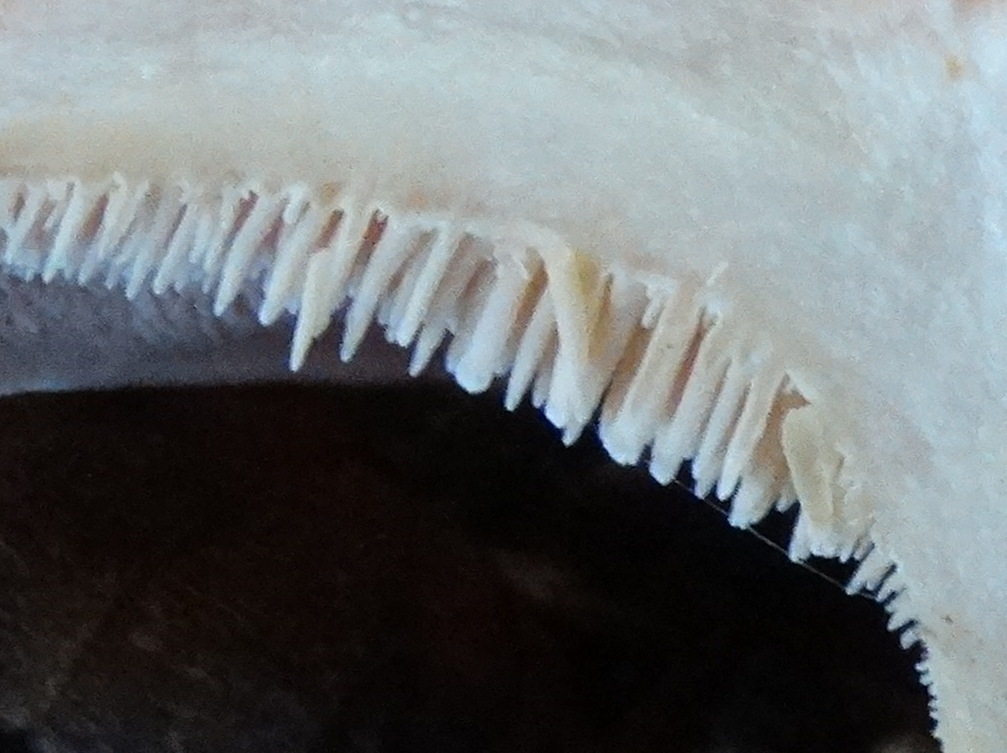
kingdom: Fungi
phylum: Basidiomycota
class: Agaricomycetes
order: Cantharellales
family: Hydnaceae
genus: Hydnum
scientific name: Hydnum rufescens
